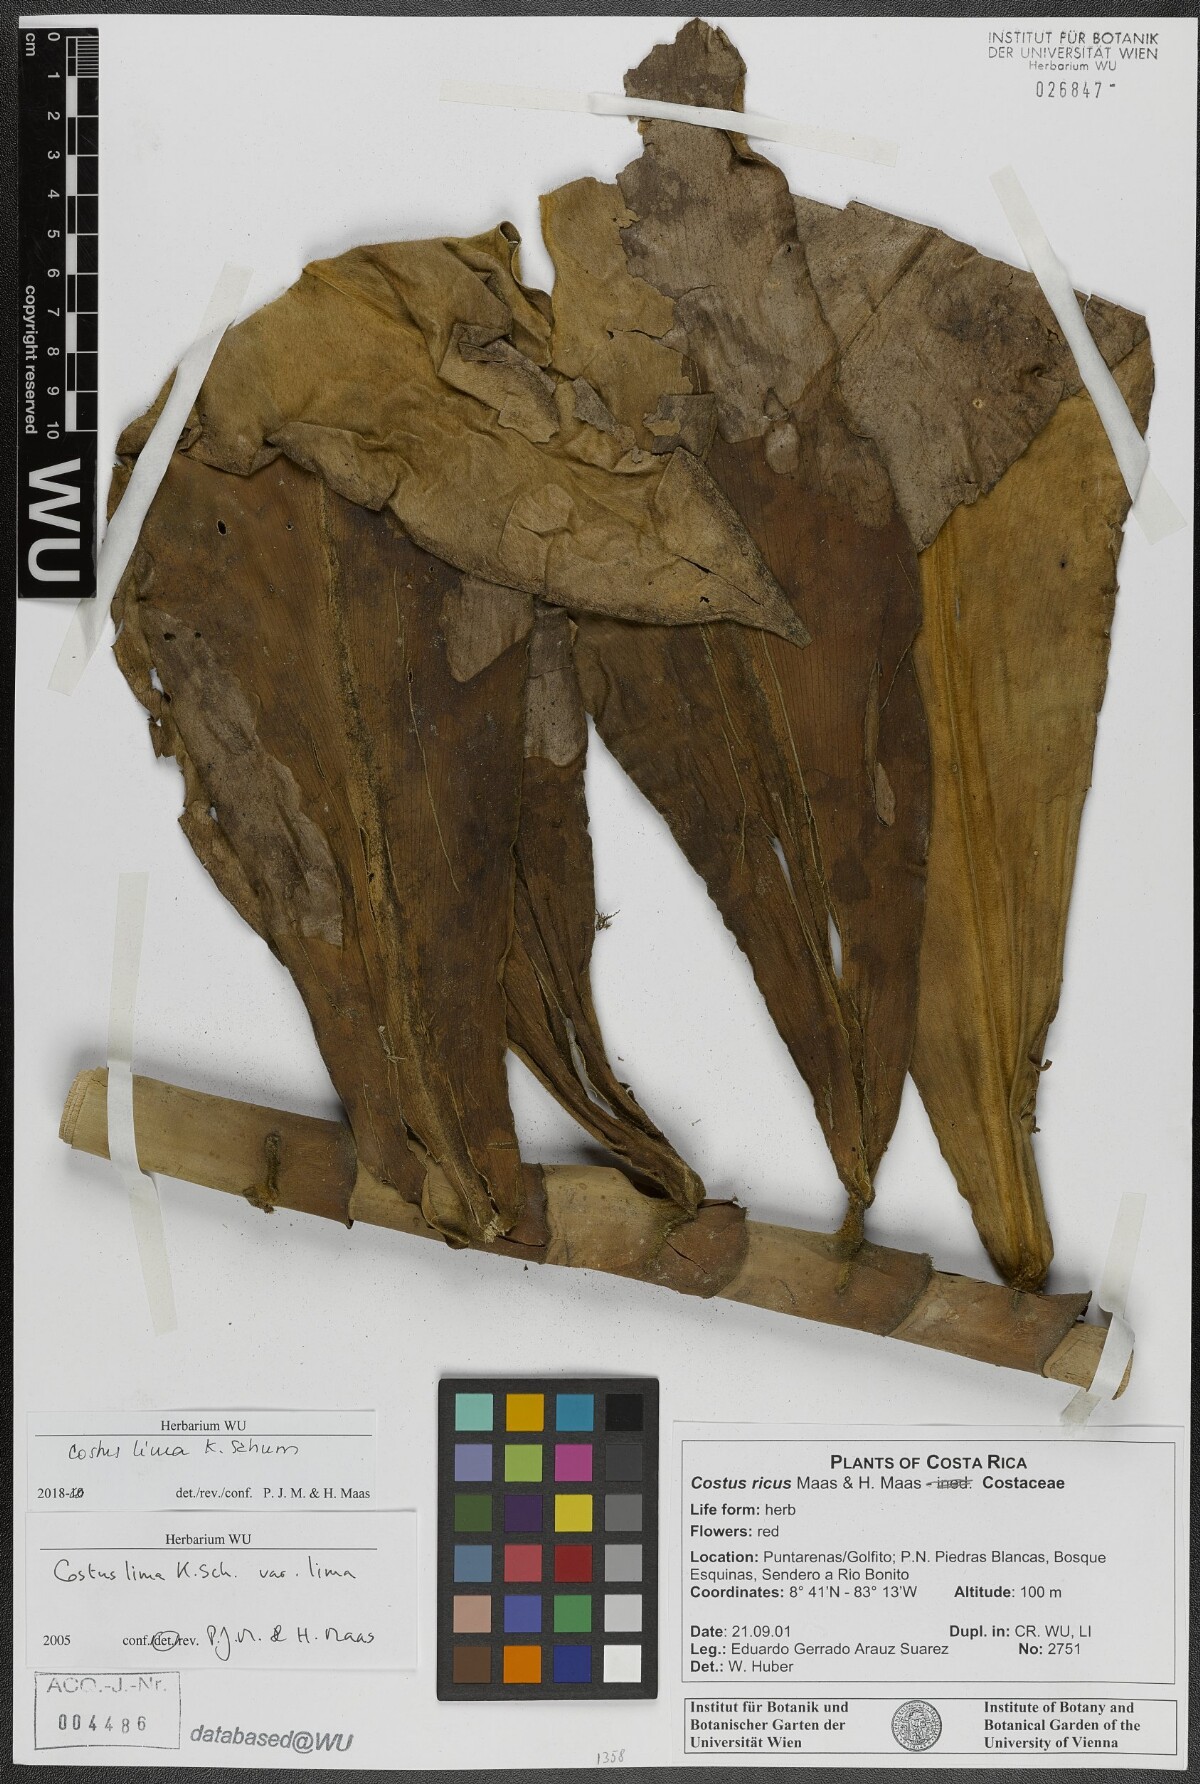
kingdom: Plantae
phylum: Tracheophyta
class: Liliopsida
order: Zingiberales
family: Costaceae
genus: Costus
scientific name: Costus lima
